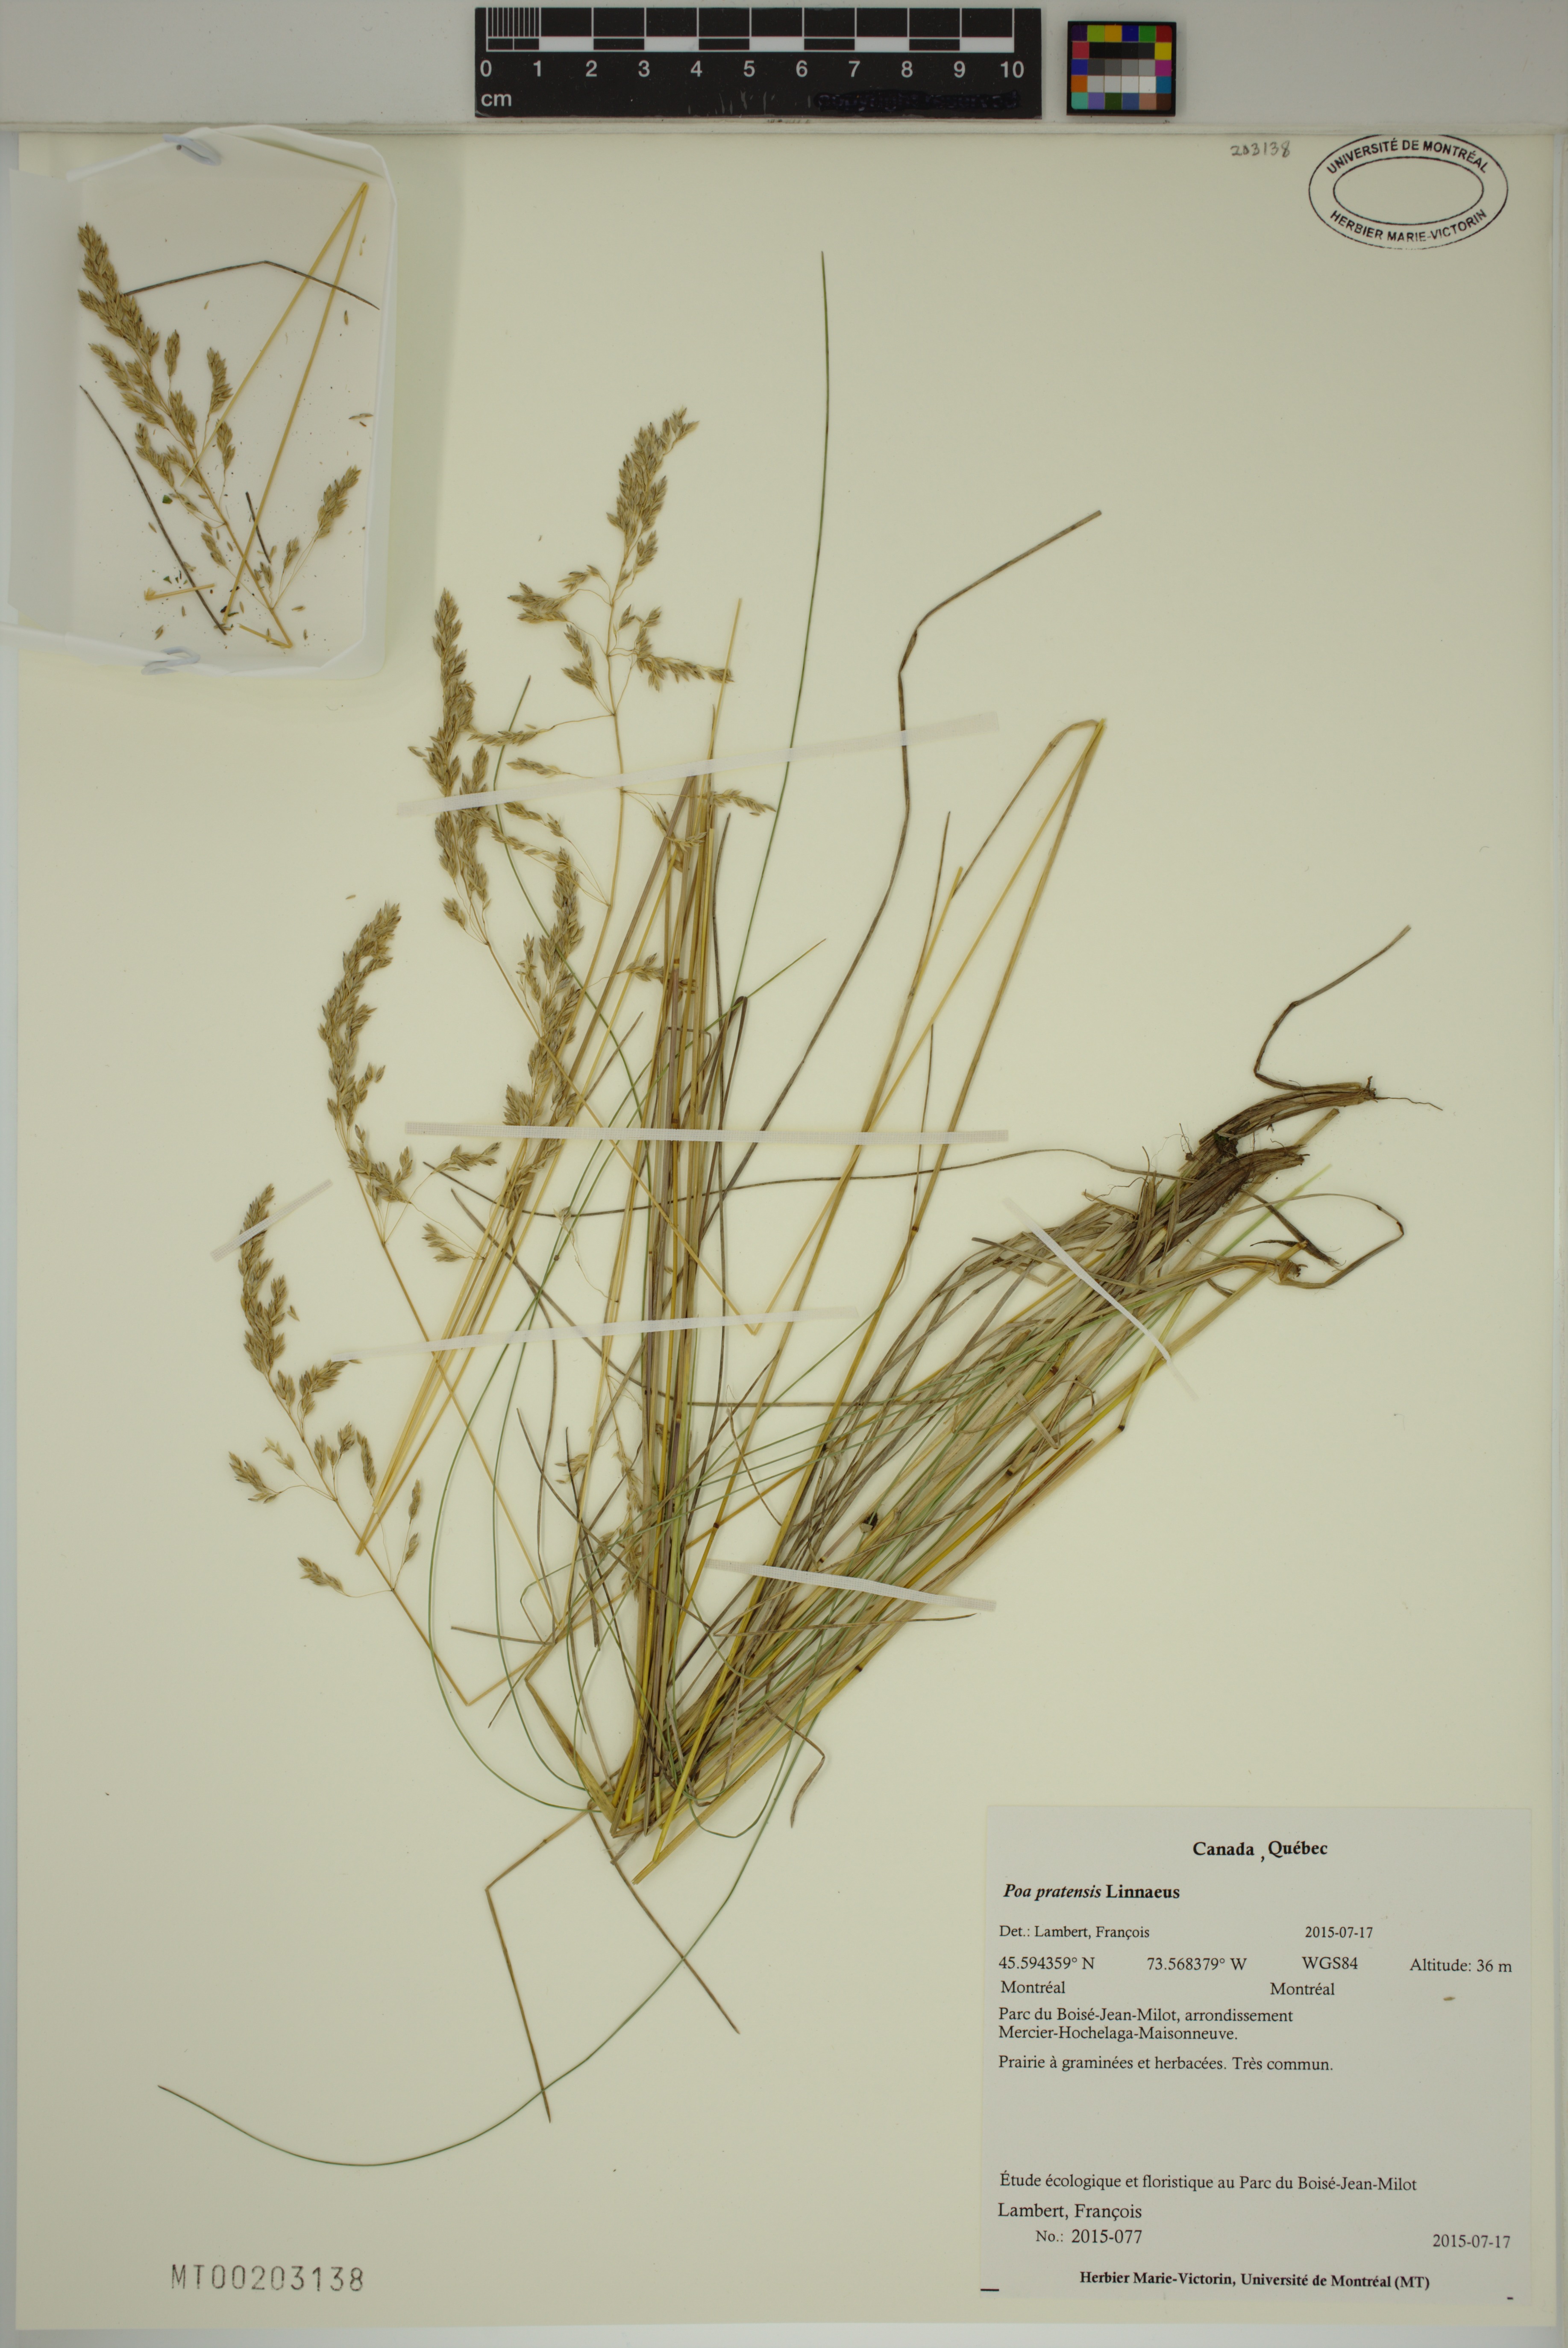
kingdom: Plantae
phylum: Tracheophyta
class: Liliopsida
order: Poales
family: Poaceae
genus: Poa
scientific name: Poa pratensis
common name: Kentucky bluegrass
